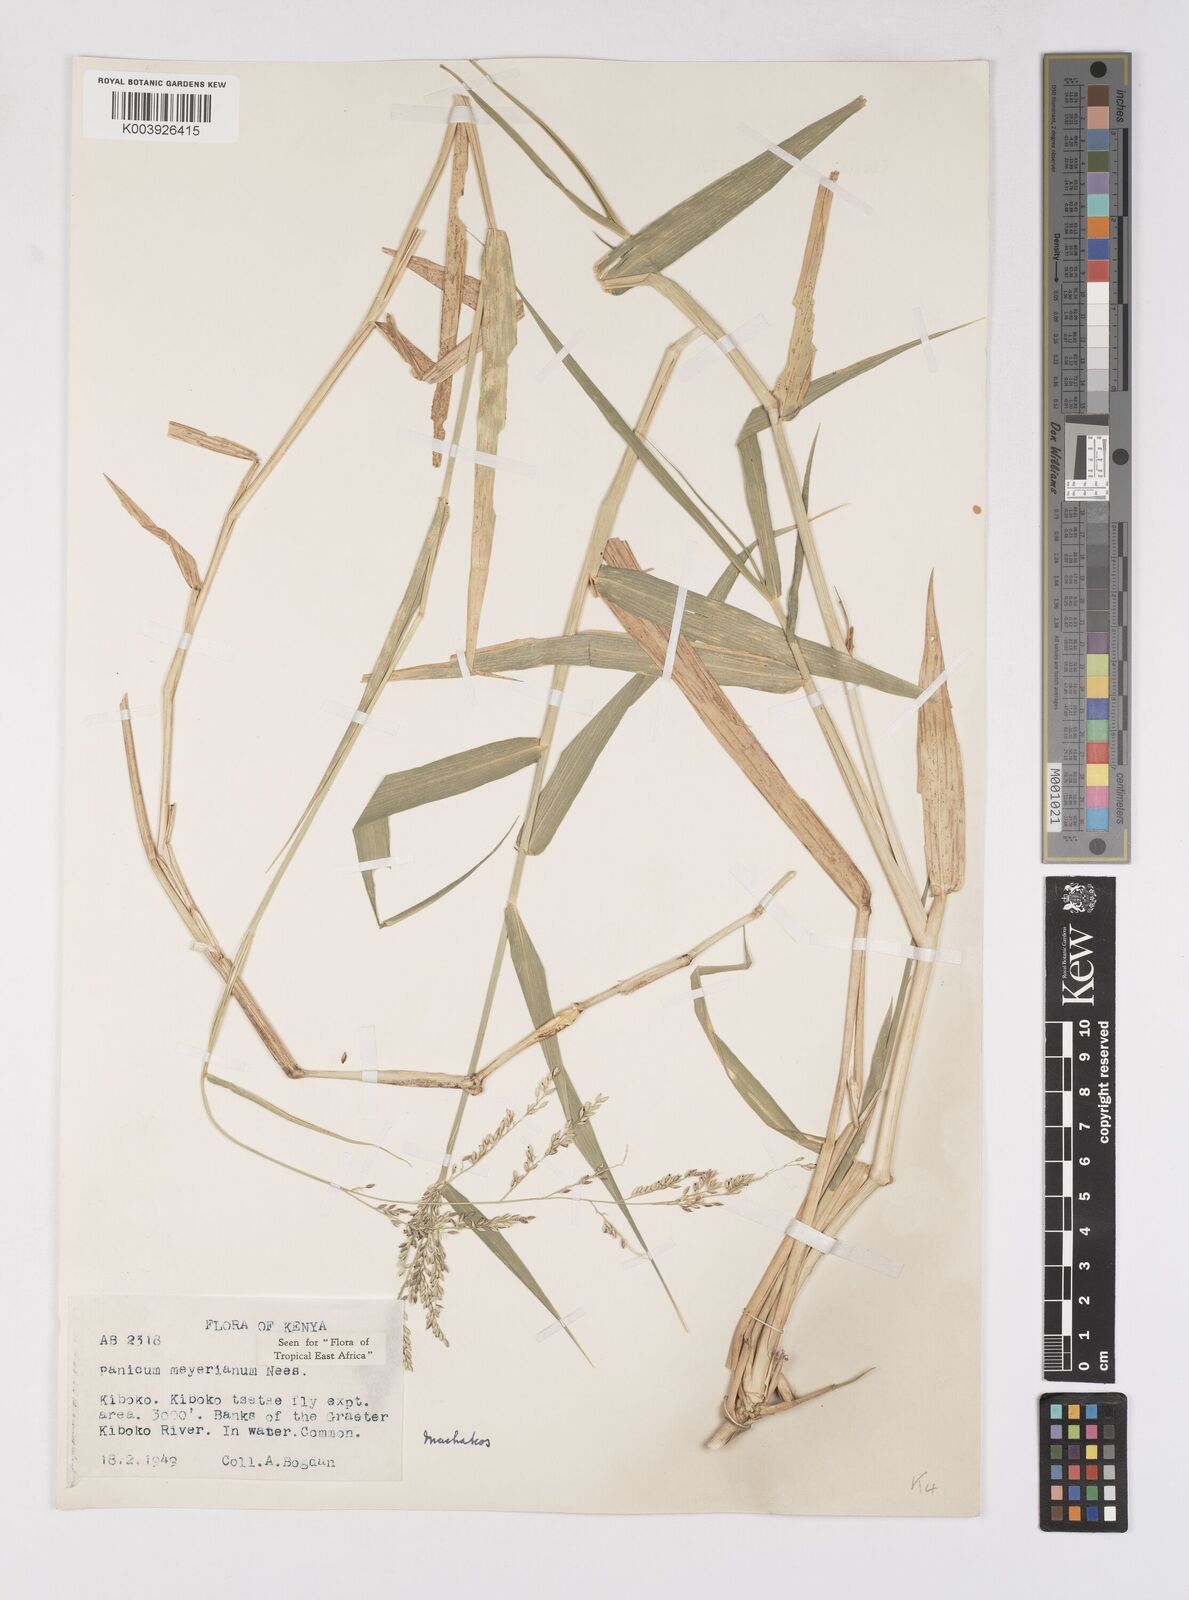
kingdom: Plantae
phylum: Tracheophyta
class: Liliopsida
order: Poales
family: Poaceae
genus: Eriochloa
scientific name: Eriochloa meyeriana
